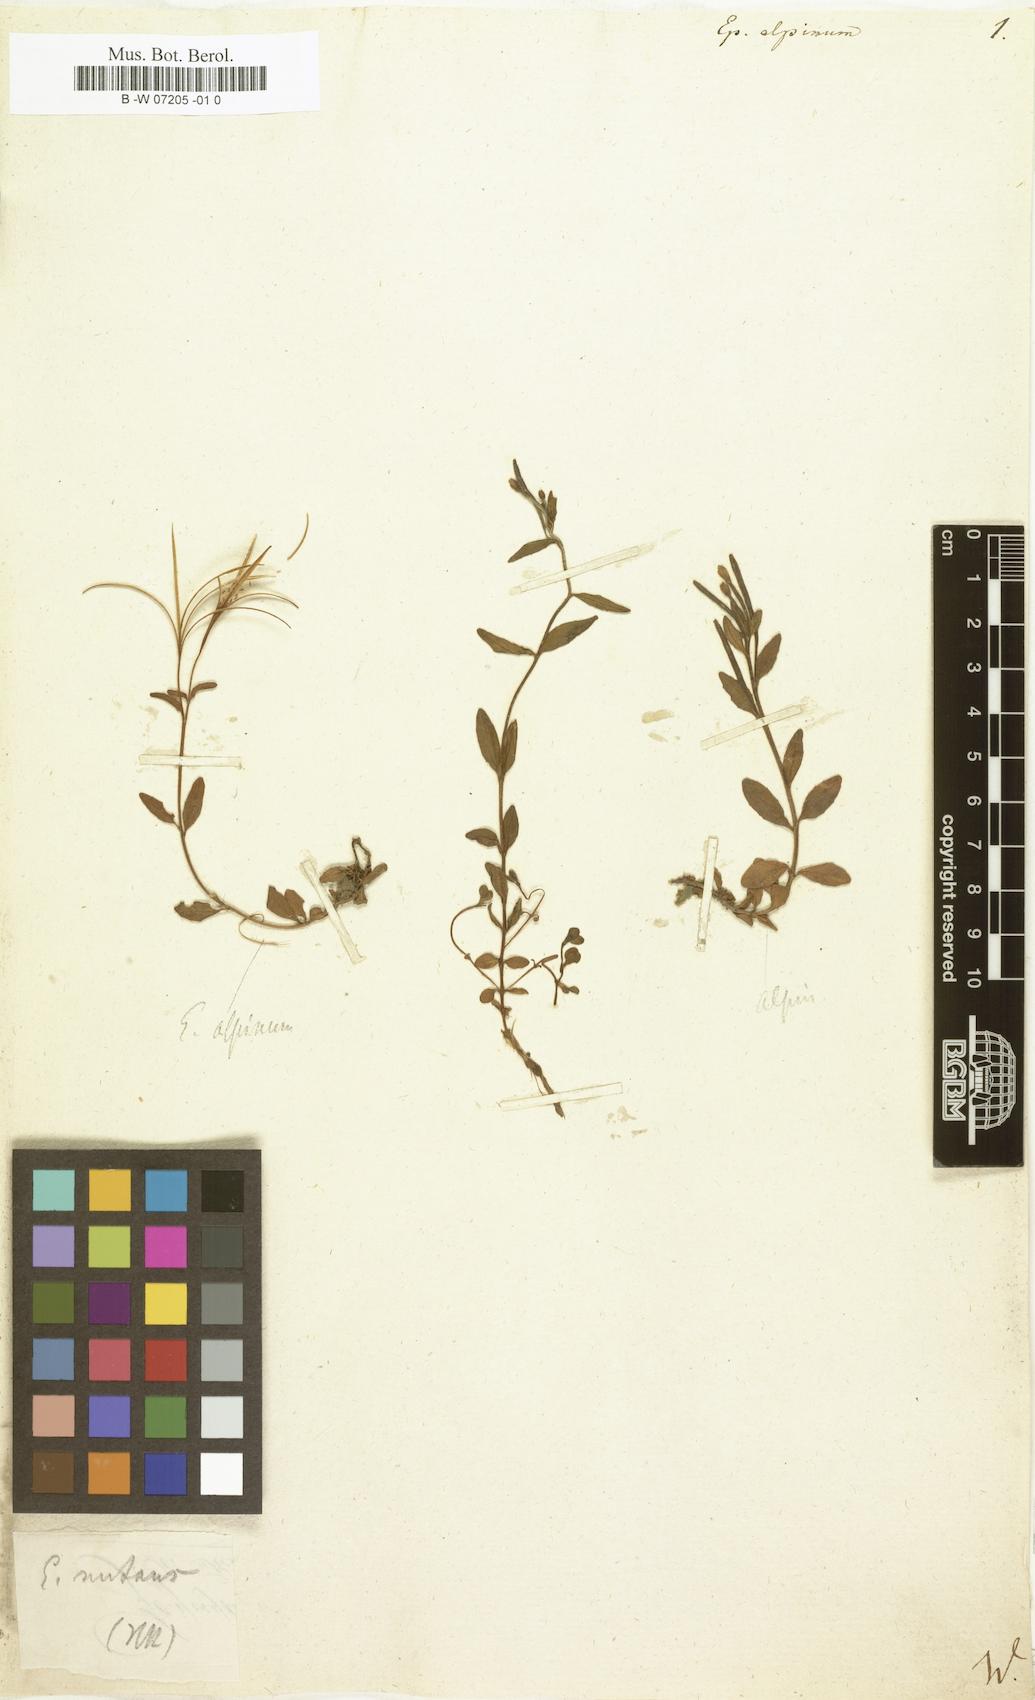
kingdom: Plantae
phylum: Tracheophyta
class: Magnoliopsida
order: Myrtales
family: Onagraceae
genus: Epilobium
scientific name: Epilobium alpinum
